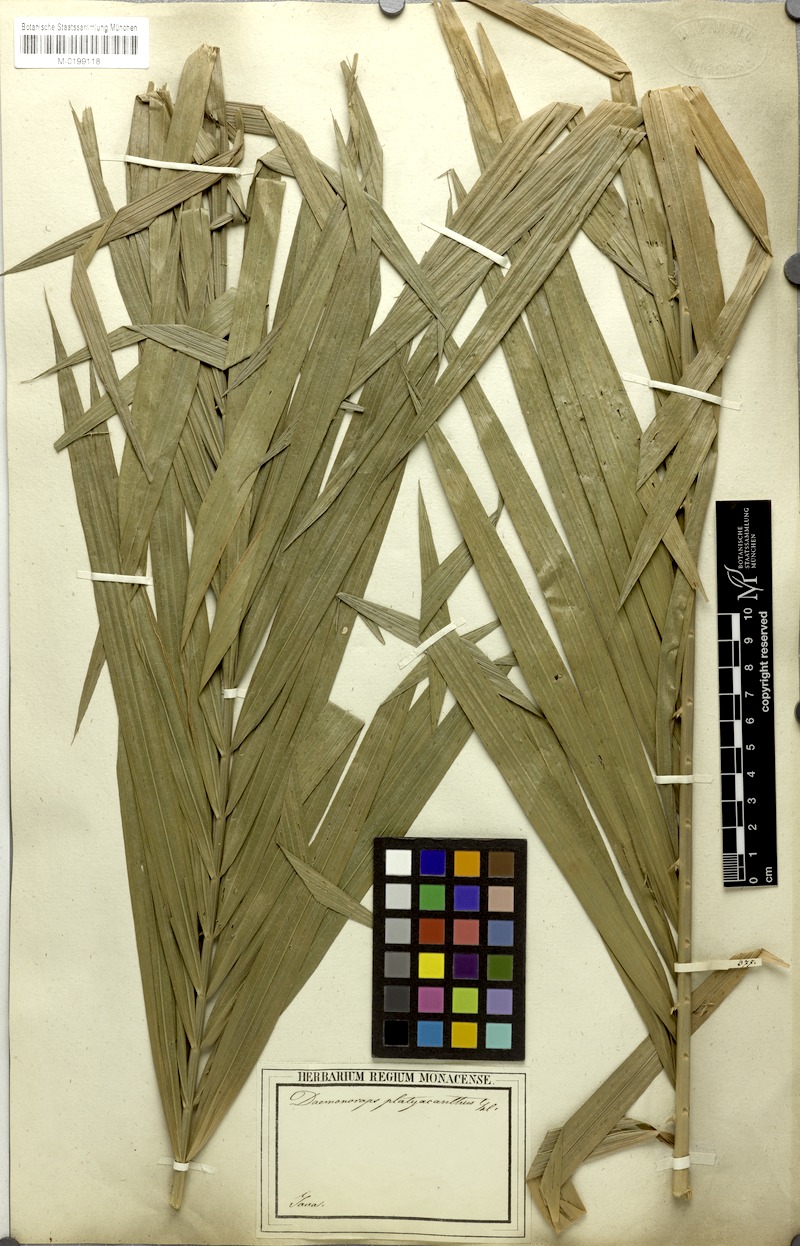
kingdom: Plantae
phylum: Tracheophyta
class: Liliopsida
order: Arecales
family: Arecaceae
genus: Calamus
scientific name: Calamus oblongus
